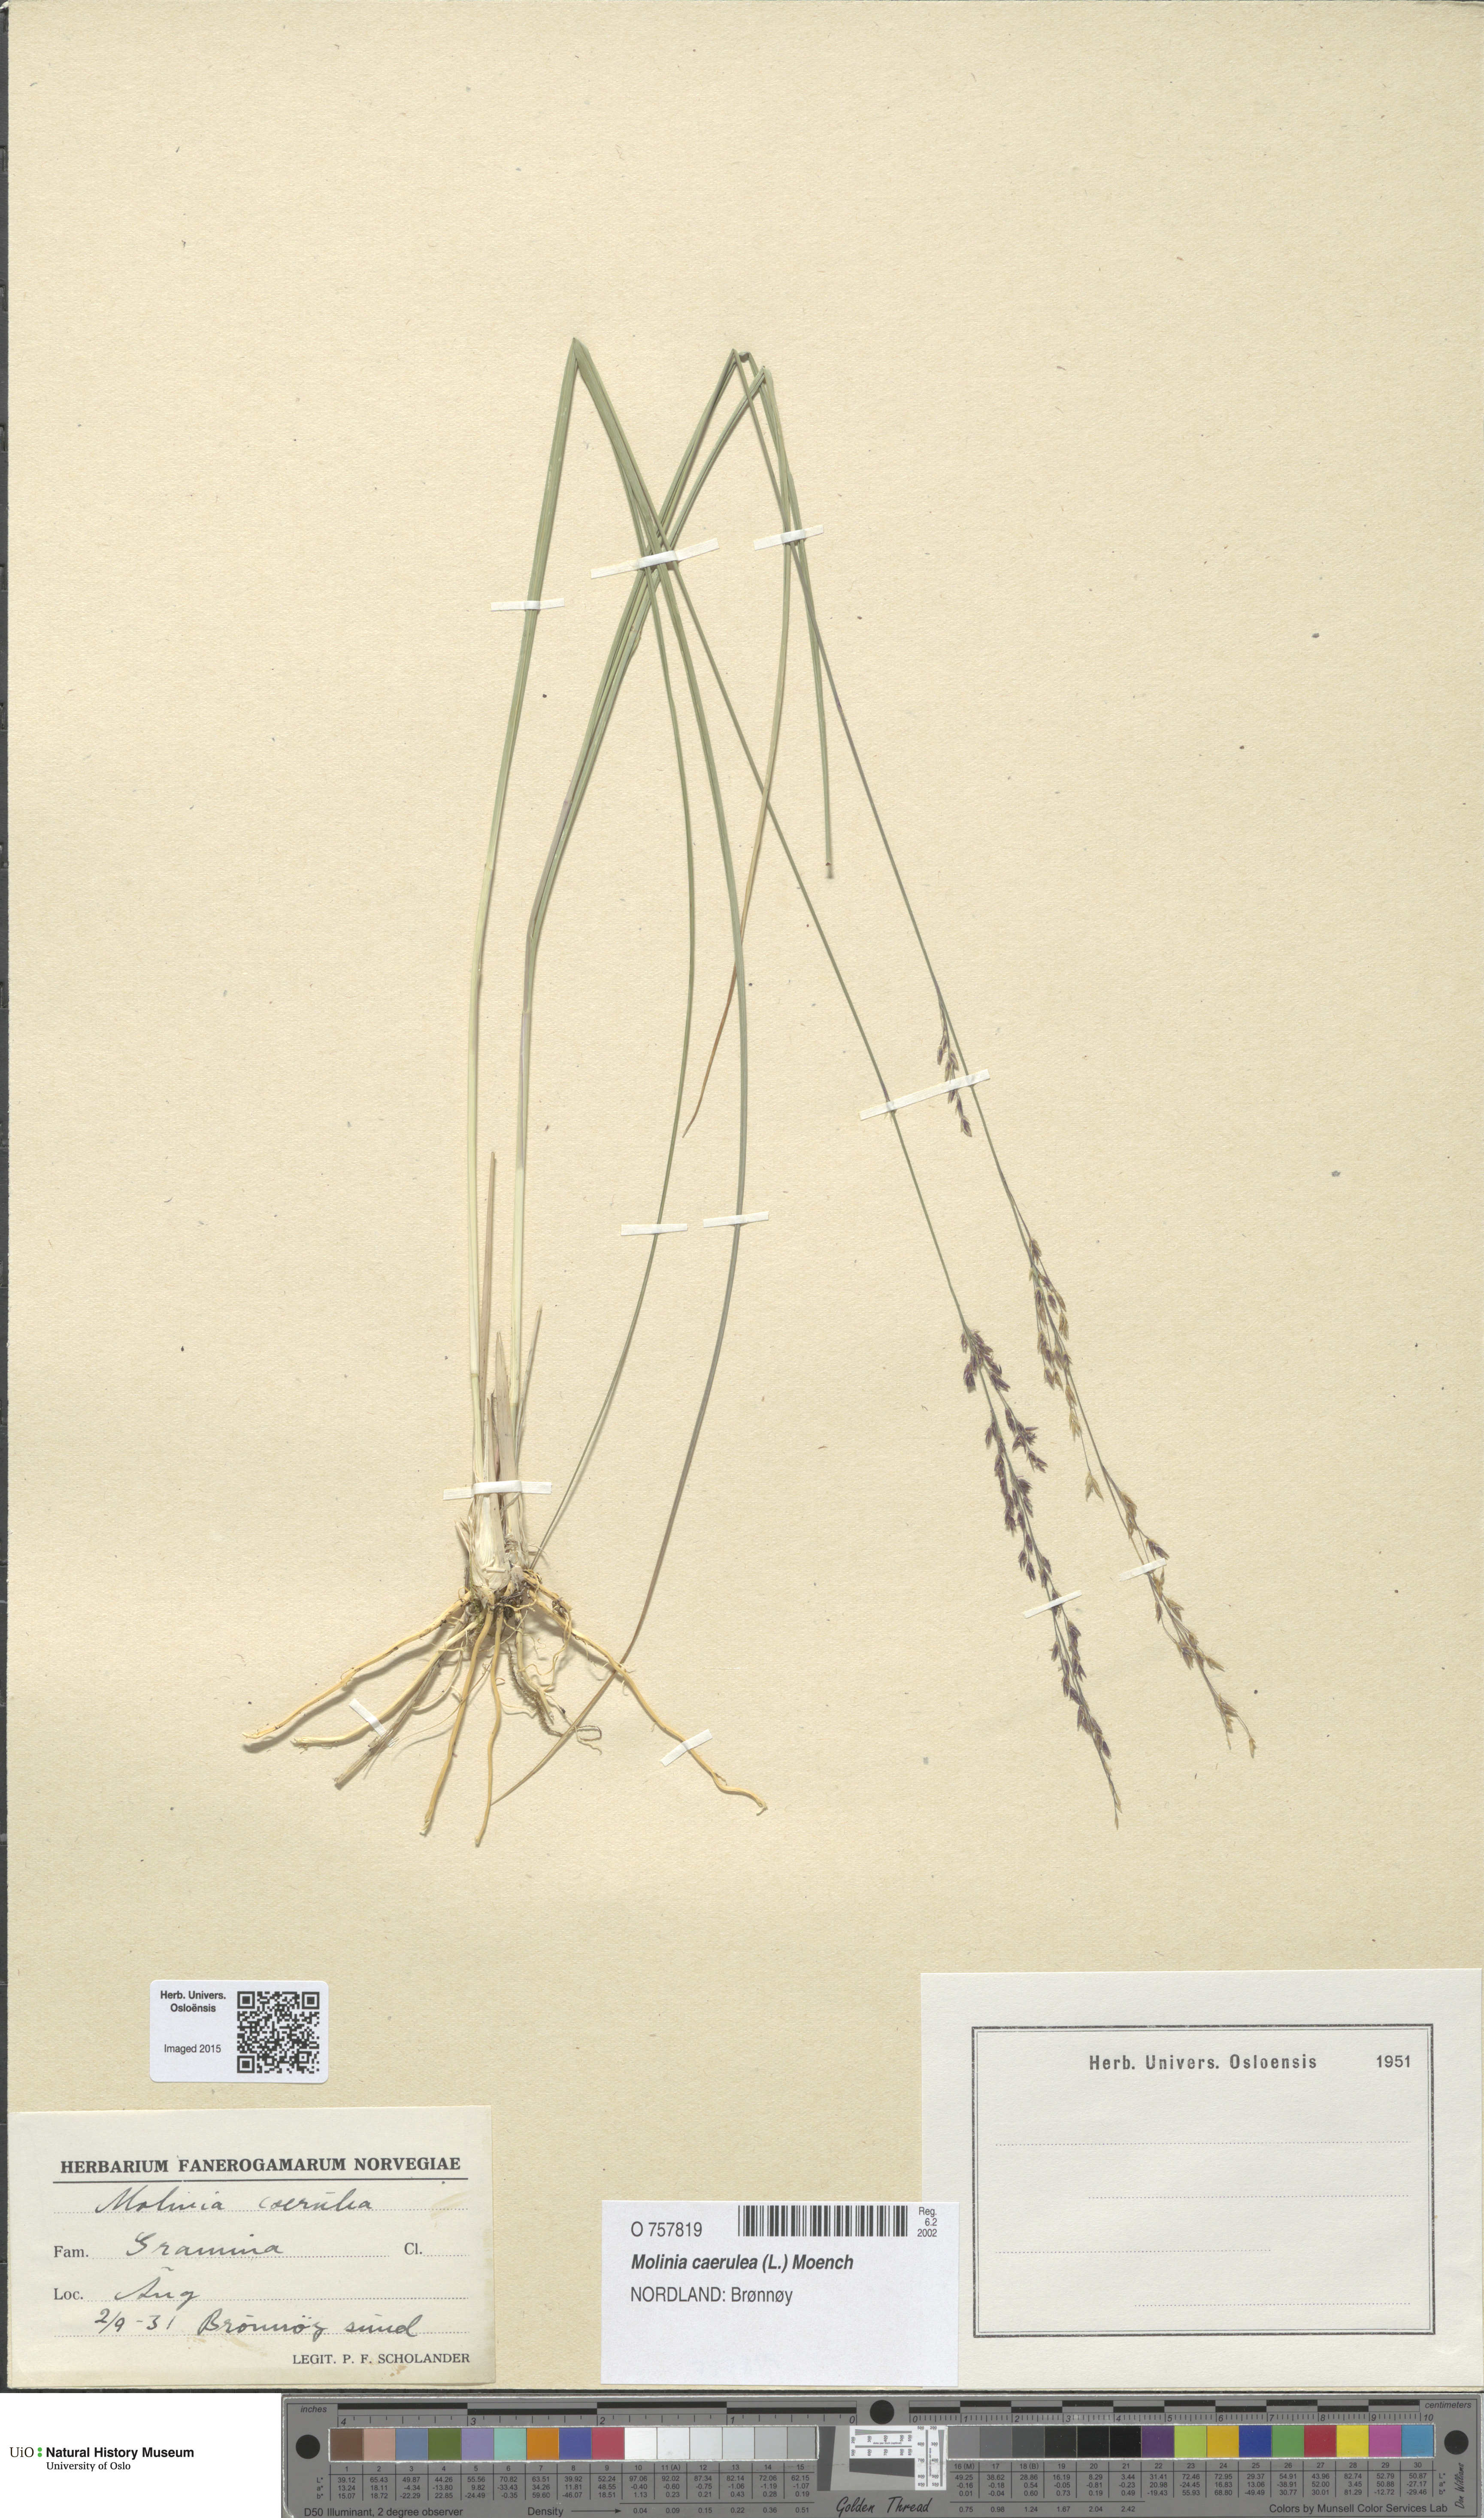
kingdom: Plantae
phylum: Tracheophyta
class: Liliopsida
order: Poales
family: Poaceae
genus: Molinia
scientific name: Molinia caerulea
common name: Purple moor-grass
